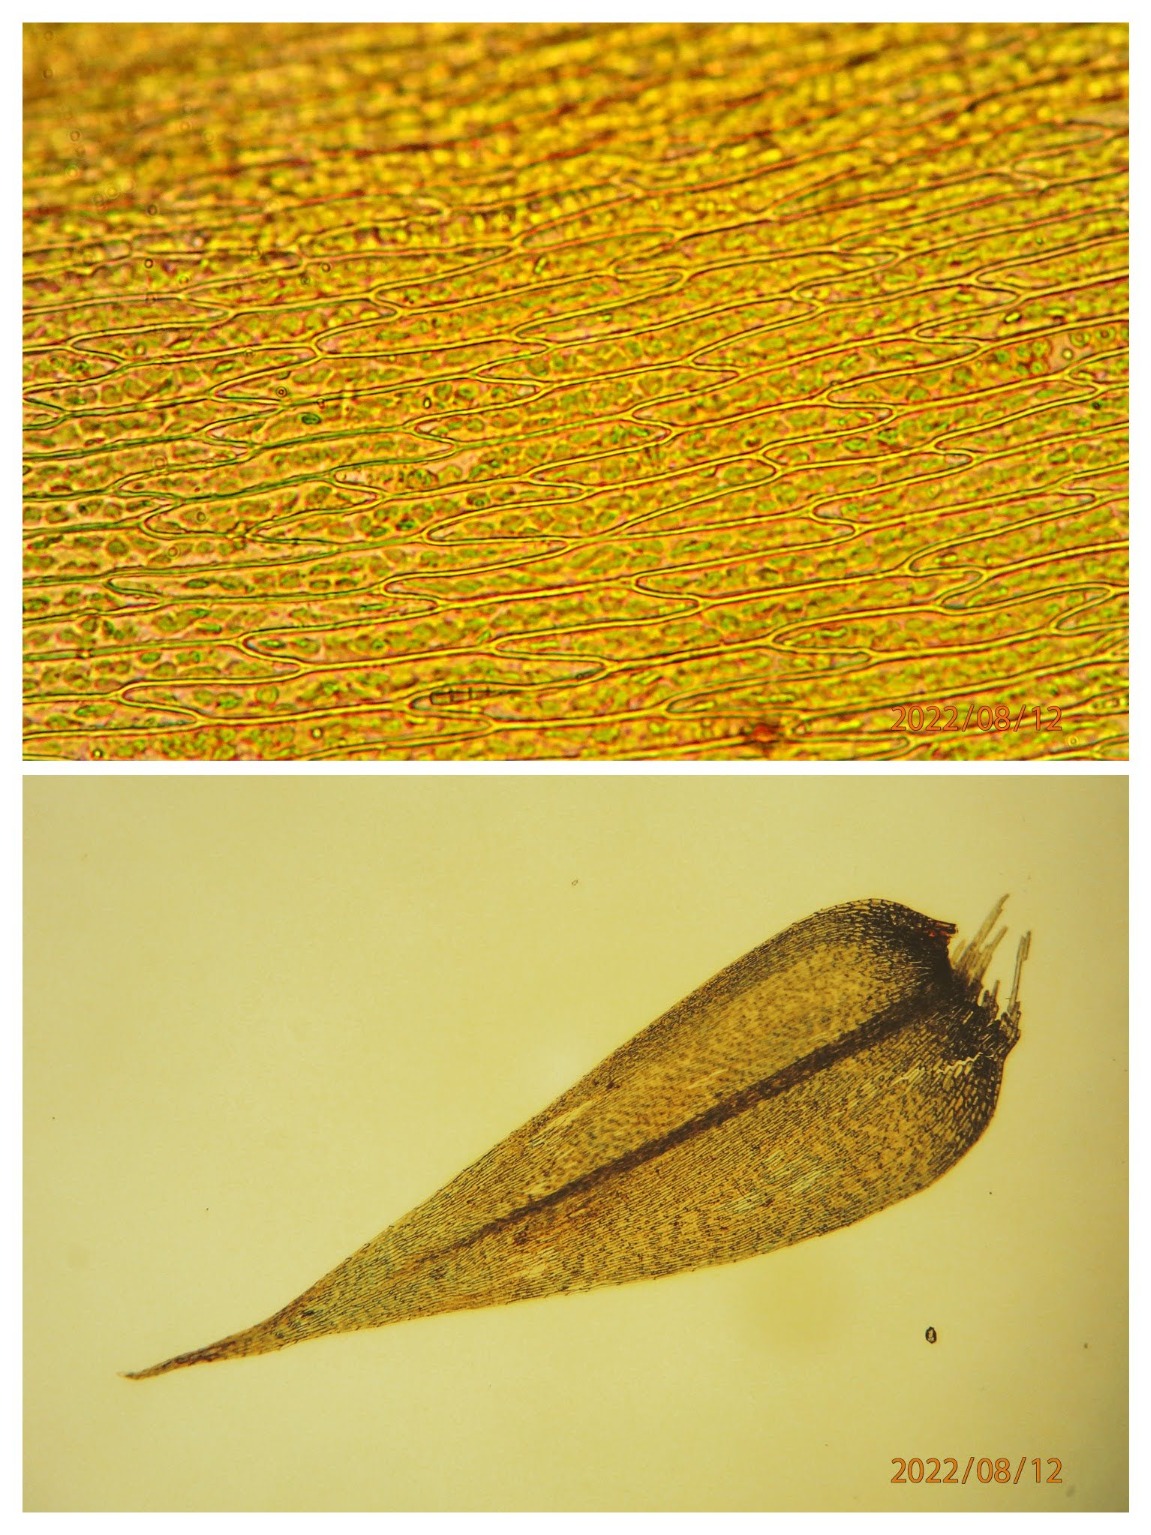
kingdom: Plantae
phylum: Bryophyta
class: Bryopsida
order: Hypnales
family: Amblystegiaceae
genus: Leptodictyum
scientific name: Leptodictyum riparium
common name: Stor pytmos
